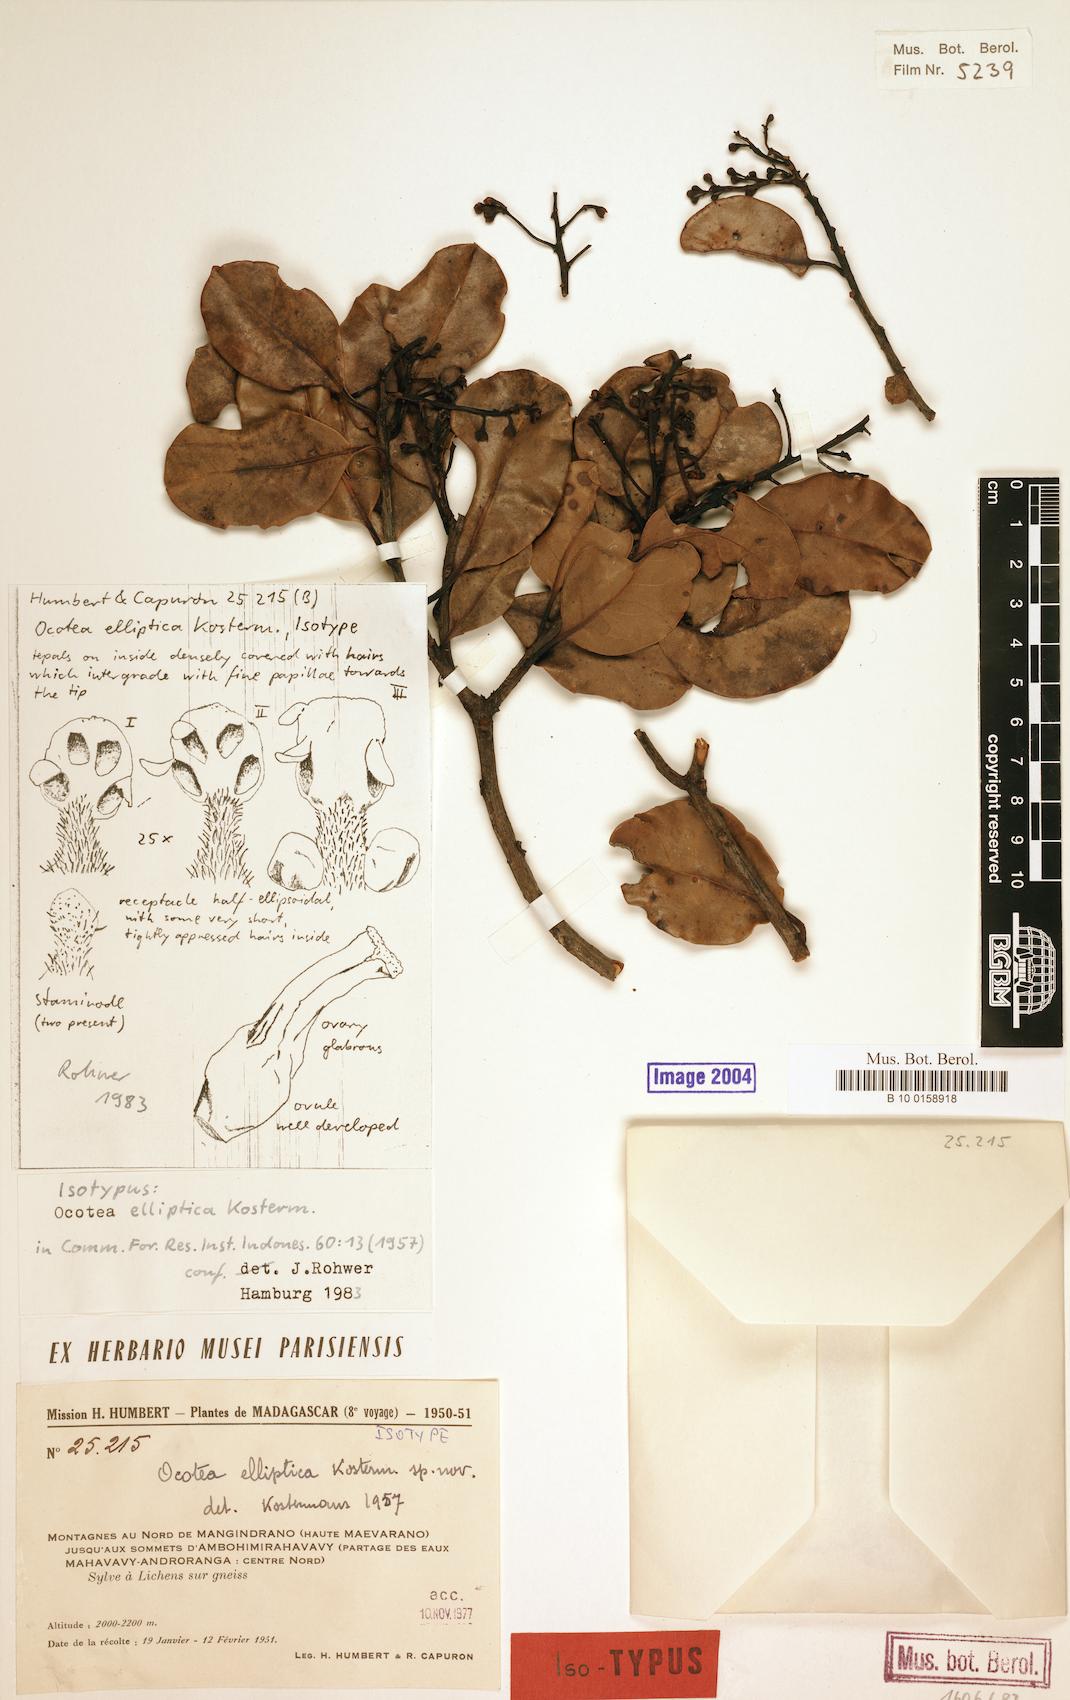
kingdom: Plantae
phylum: Tracheophyta
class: Magnoliopsida
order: Laurales
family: Lauraceae
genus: Ocotea
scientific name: Ocotea elliptica
